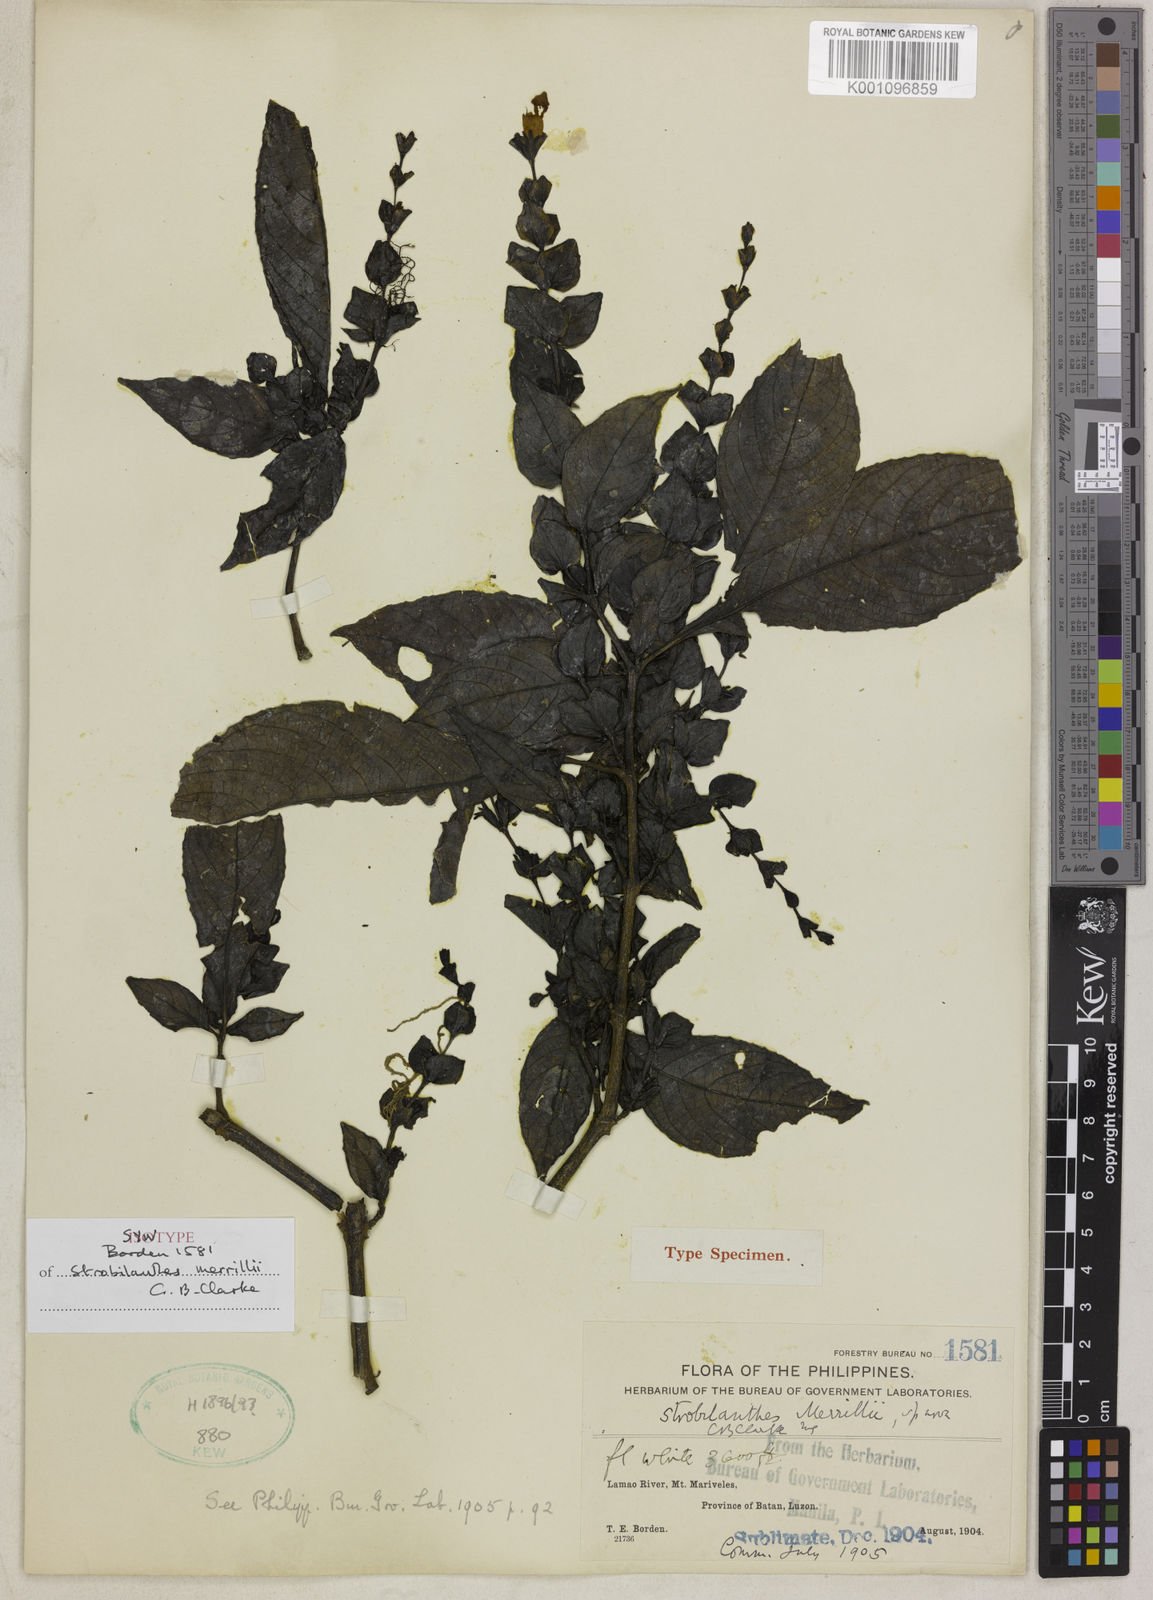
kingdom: Plantae
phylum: Tracheophyta
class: Magnoliopsida
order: Lamiales
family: Acanthaceae
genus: Strobilanthes
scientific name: Strobilanthes merrillii
